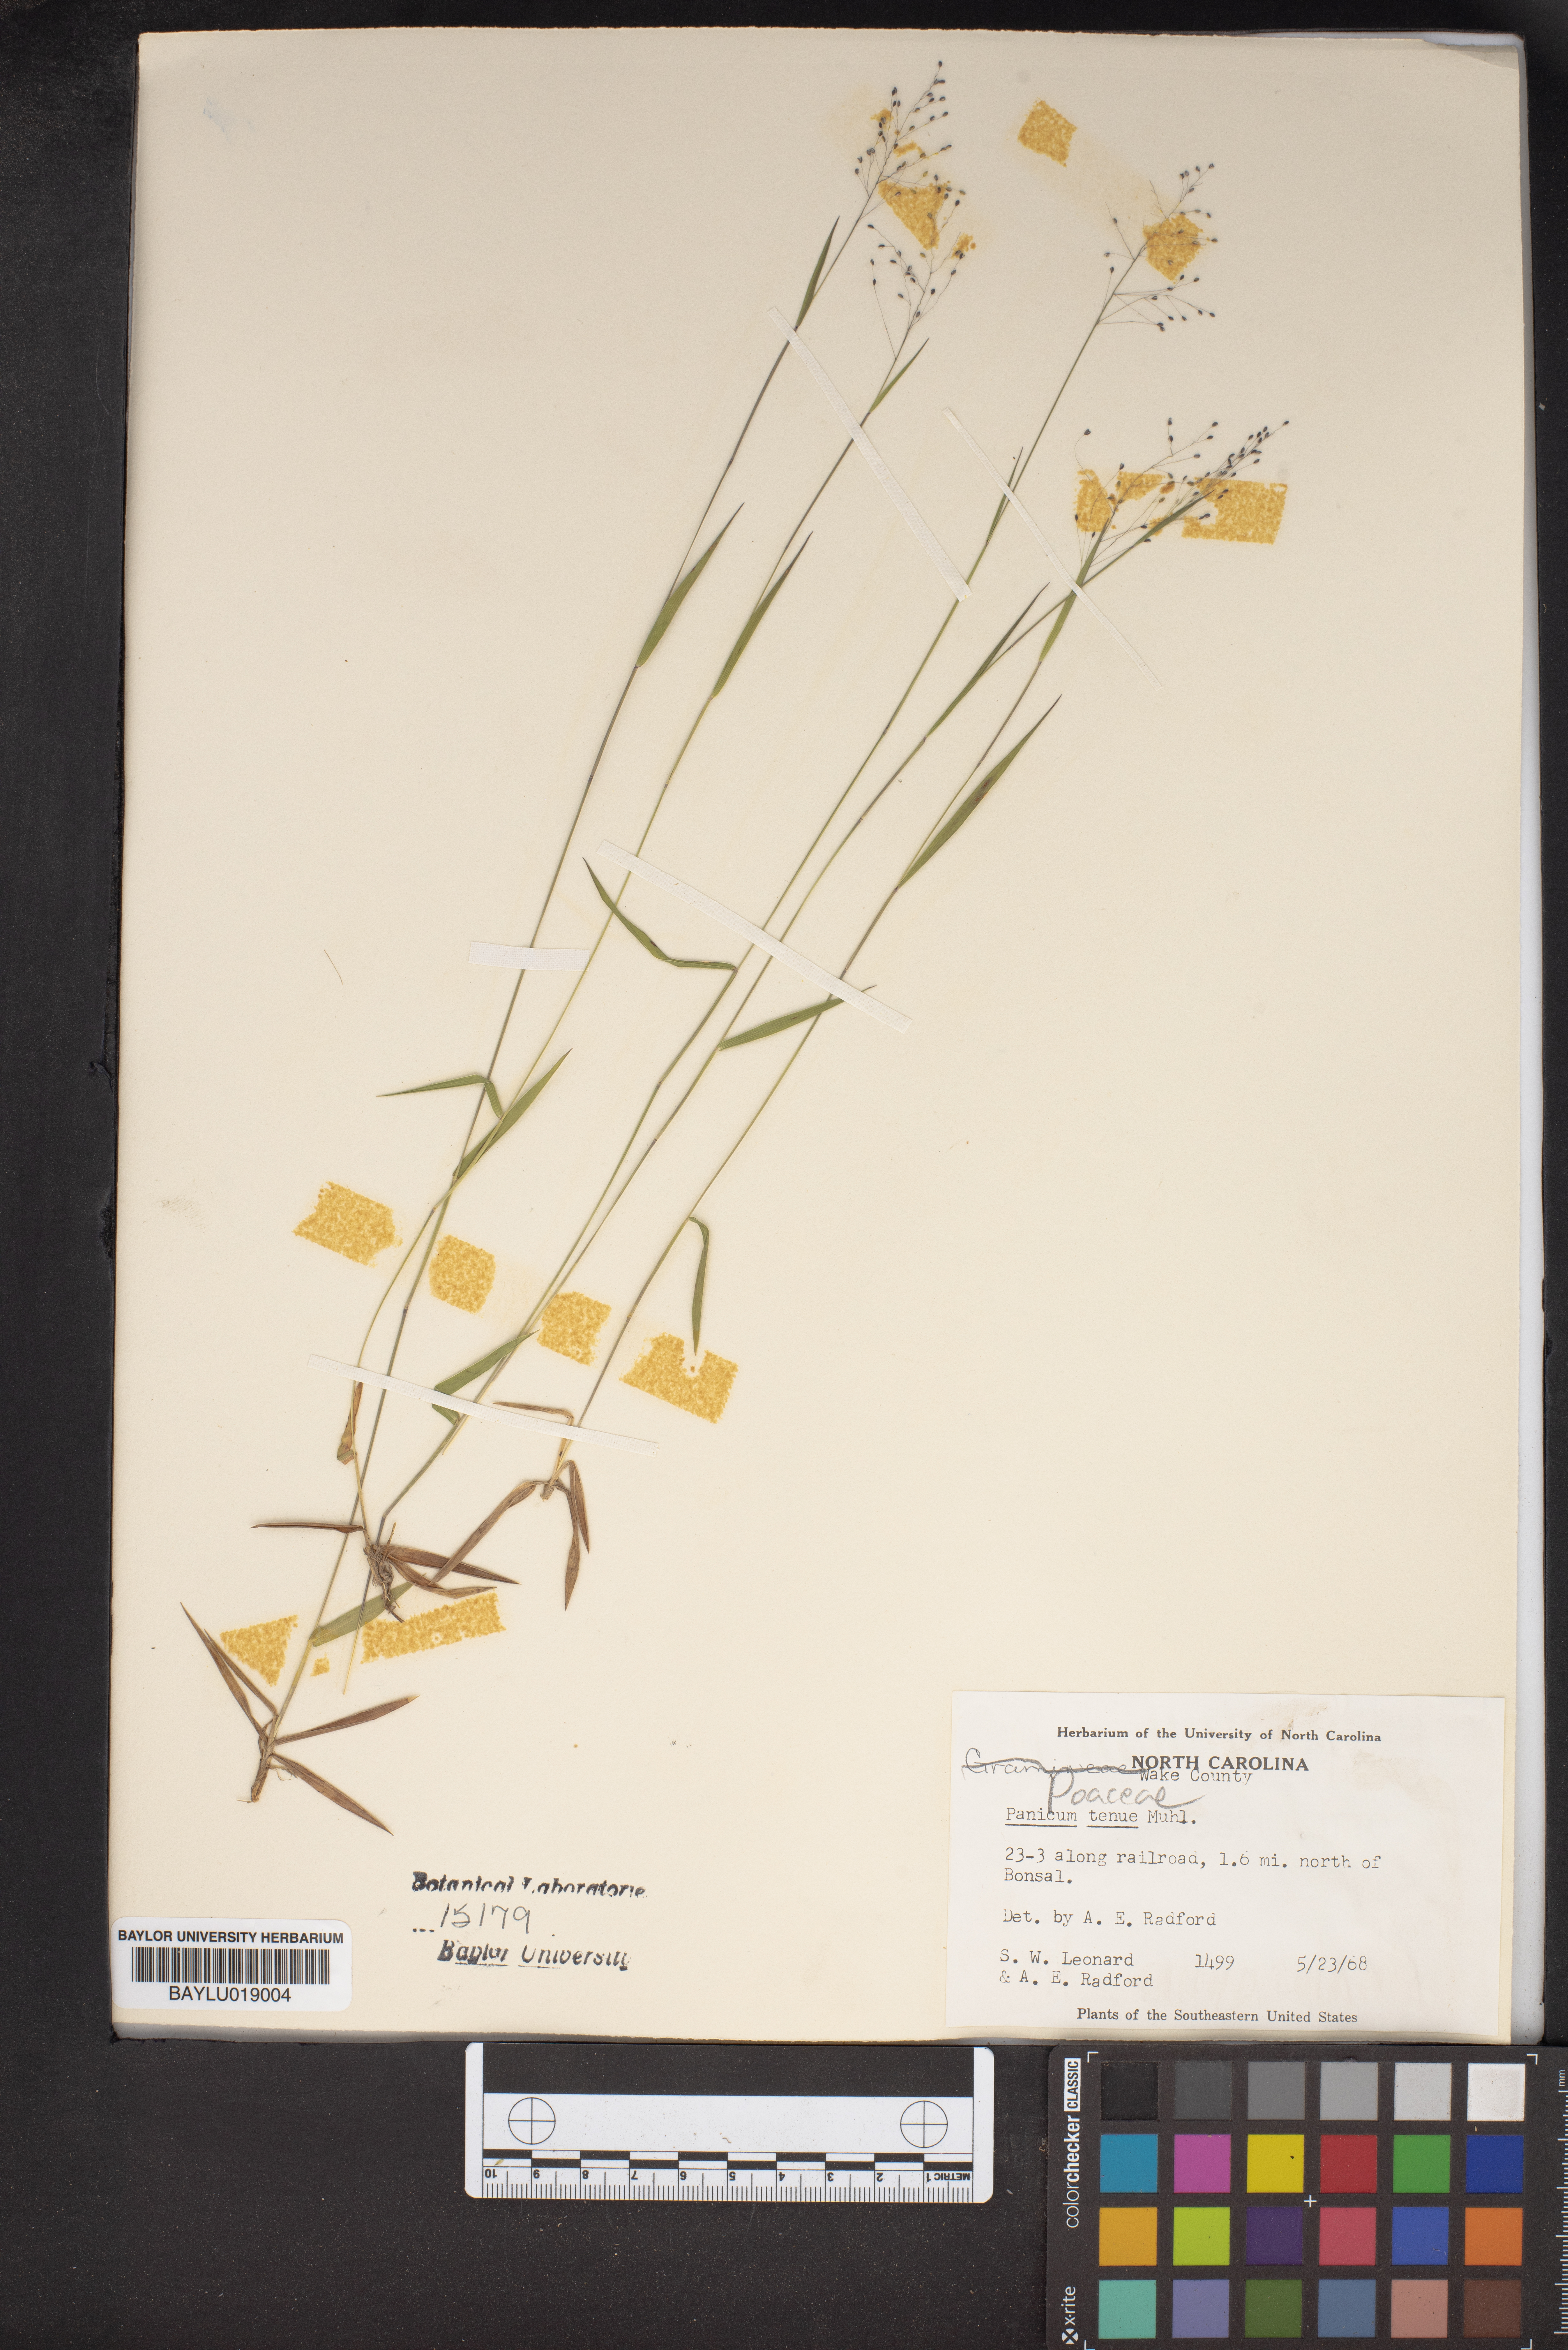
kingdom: Plantae
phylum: Tracheophyta
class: Liliopsida
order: Poales
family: Poaceae
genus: Dichanthelium
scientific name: Dichanthelium tenue
